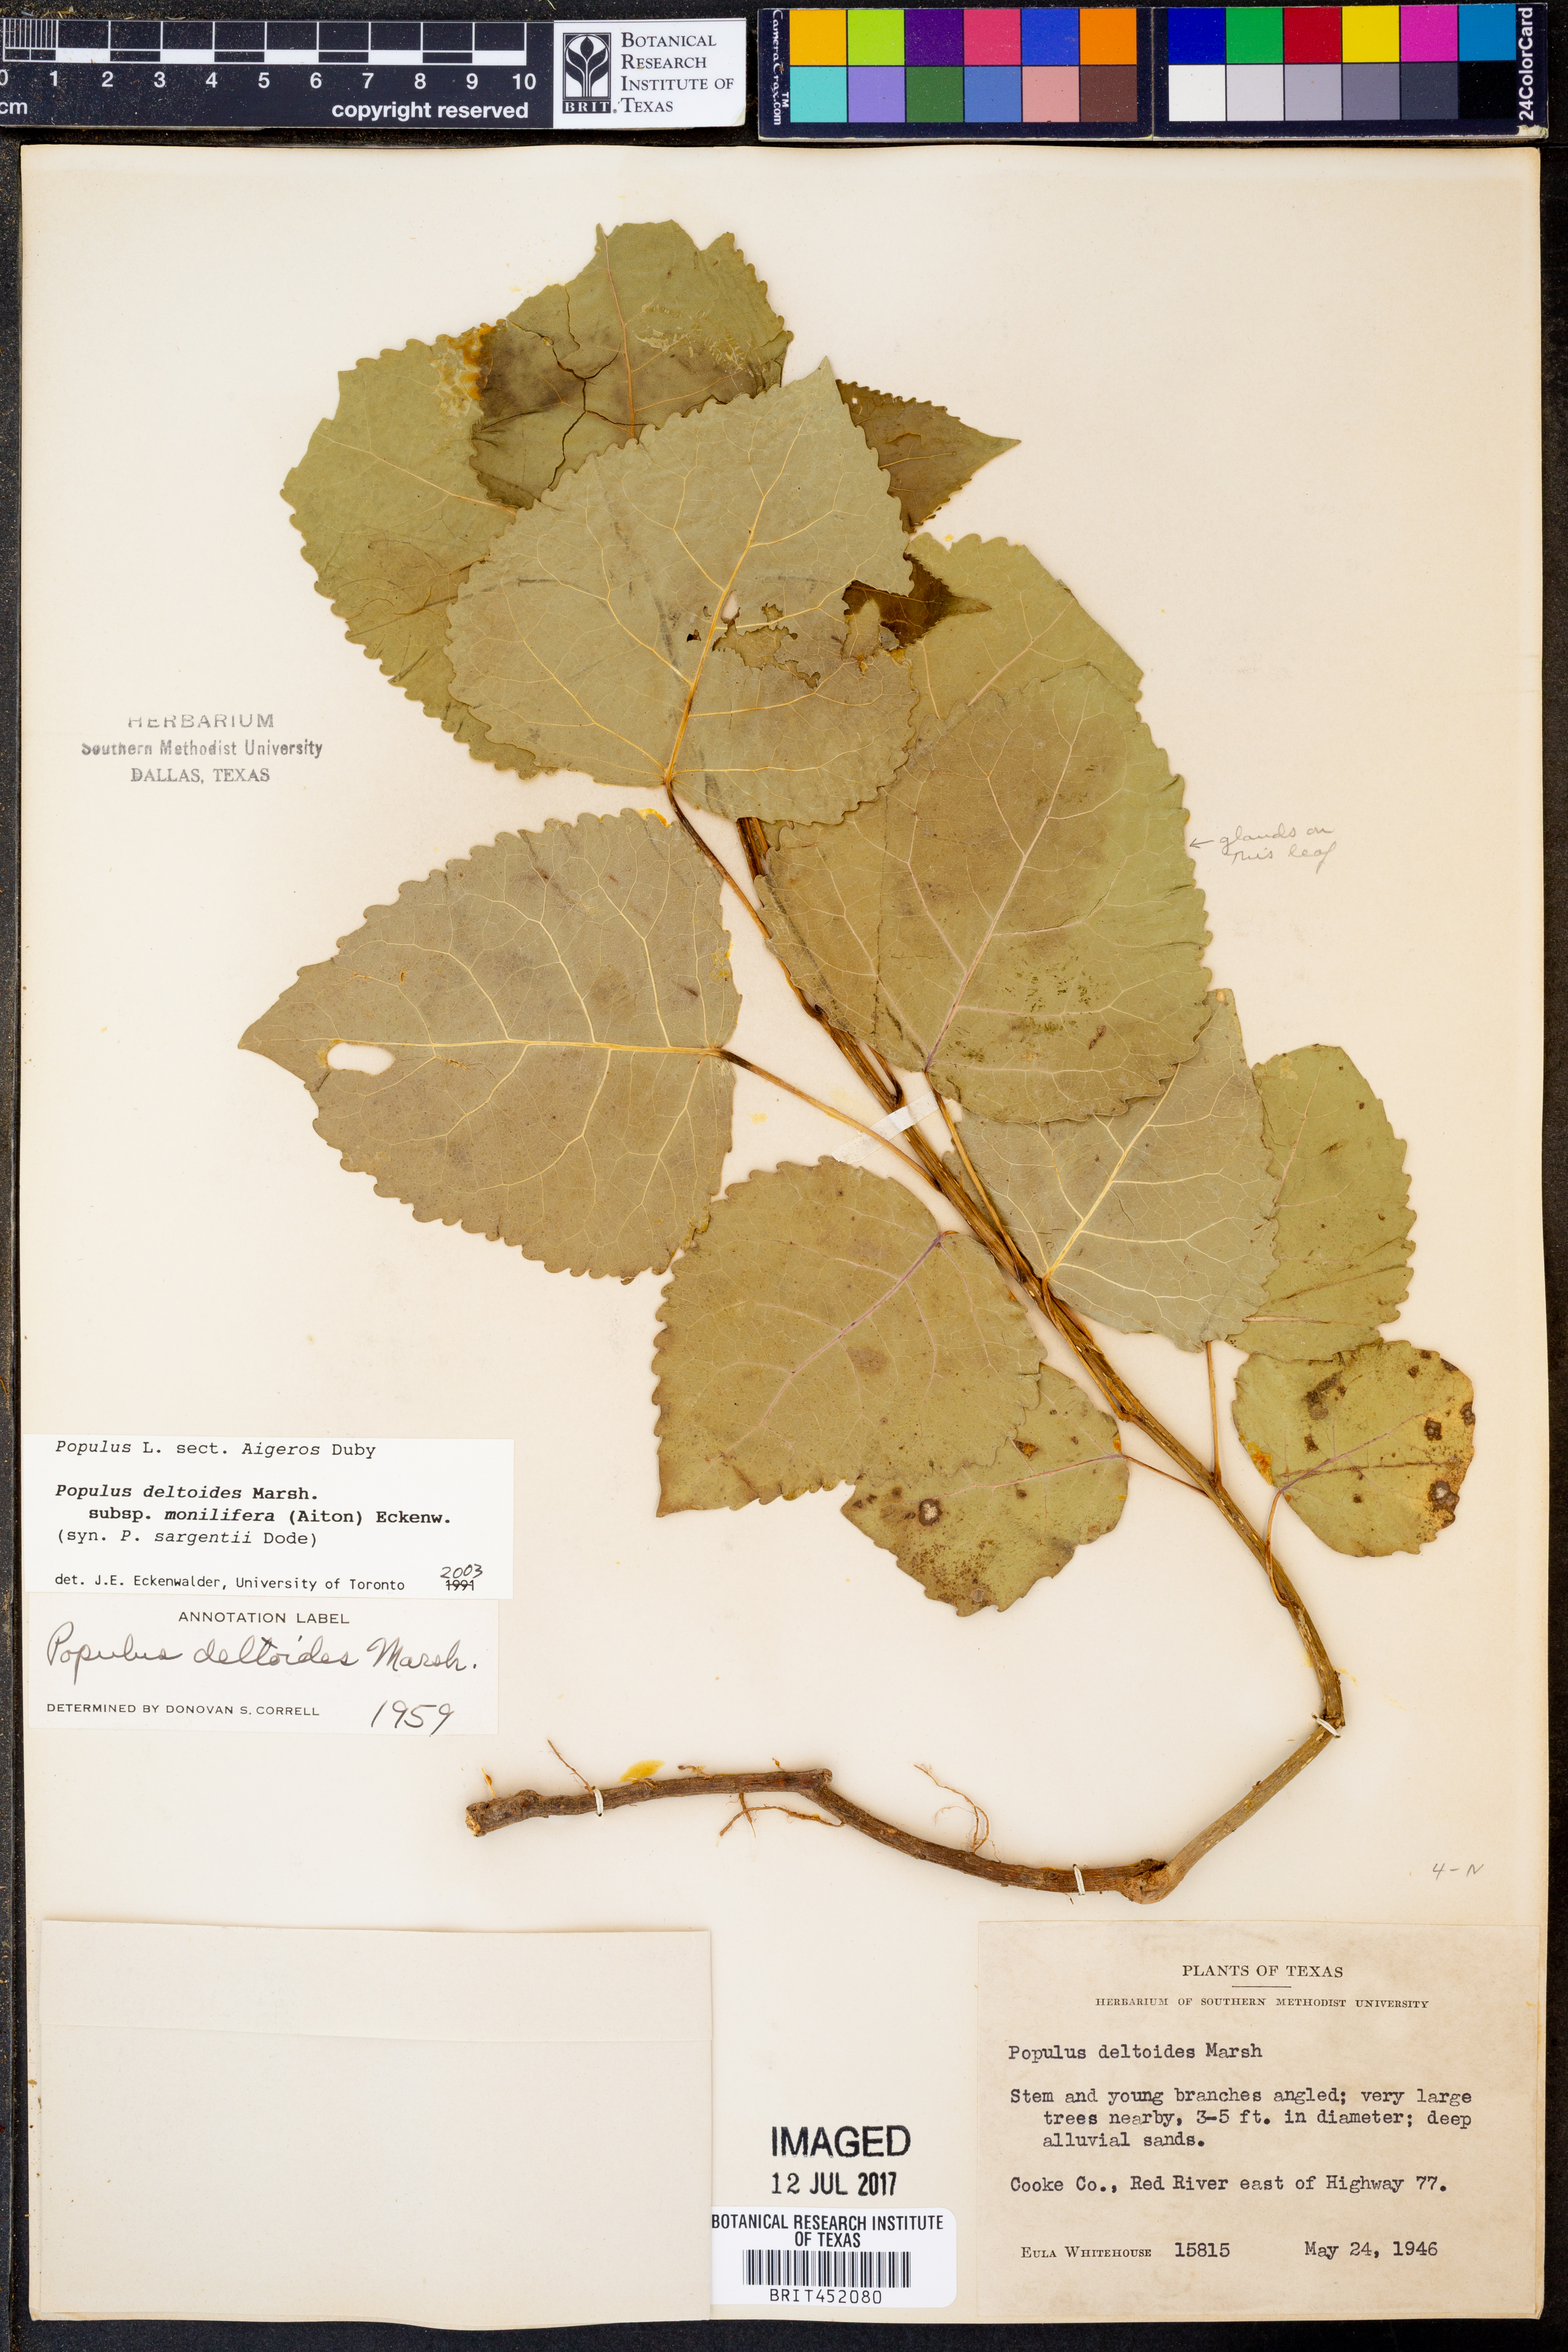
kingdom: Plantae
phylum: Tracheophyta
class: Magnoliopsida
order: Malpighiales
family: Salicaceae
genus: Populus
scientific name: Populus deltoides
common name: Eastern cottonwood
